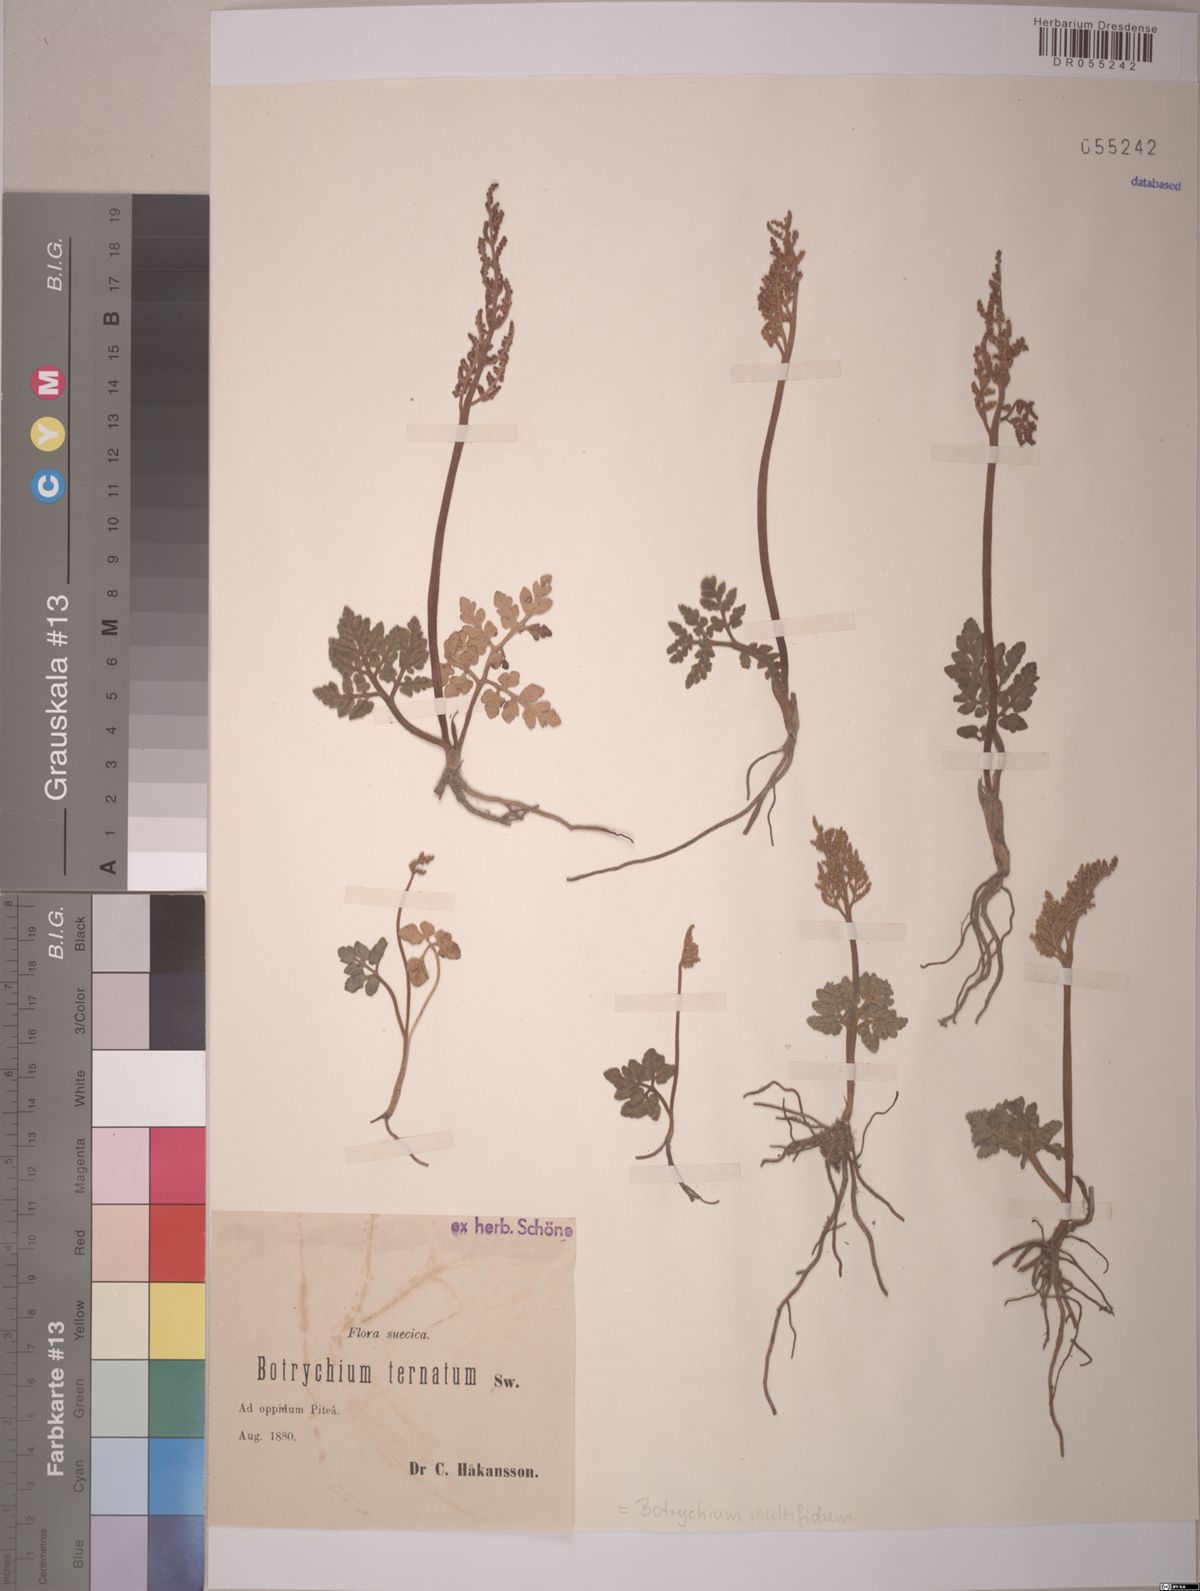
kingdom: Plantae
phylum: Tracheophyta
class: Polypodiopsida
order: Ophioglossales
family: Ophioglossaceae
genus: Sceptridium
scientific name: Sceptridium multifidum
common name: Leathery grape fern
